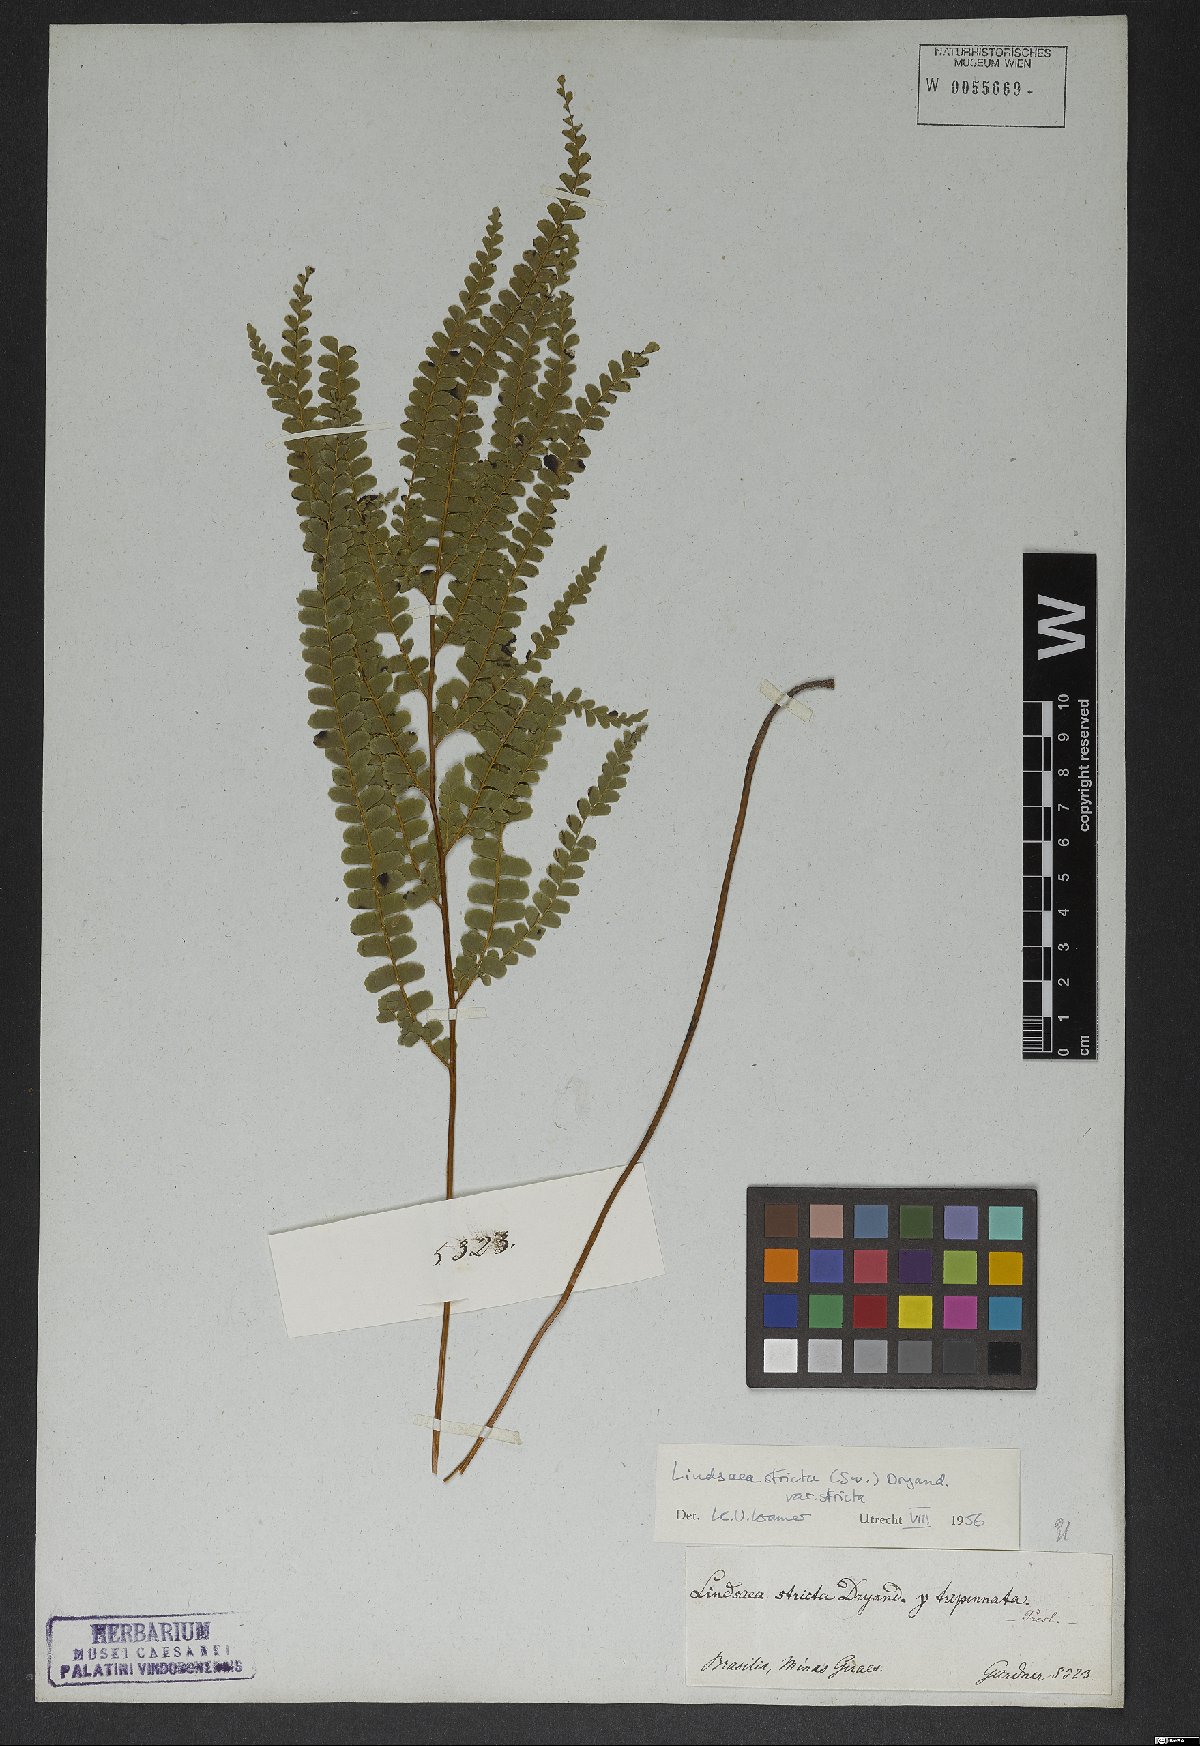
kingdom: Plantae
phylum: Tracheophyta
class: Polypodiopsida
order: Polypodiales
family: Lindsaeaceae
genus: Lindsaea
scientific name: Lindsaea stricta
